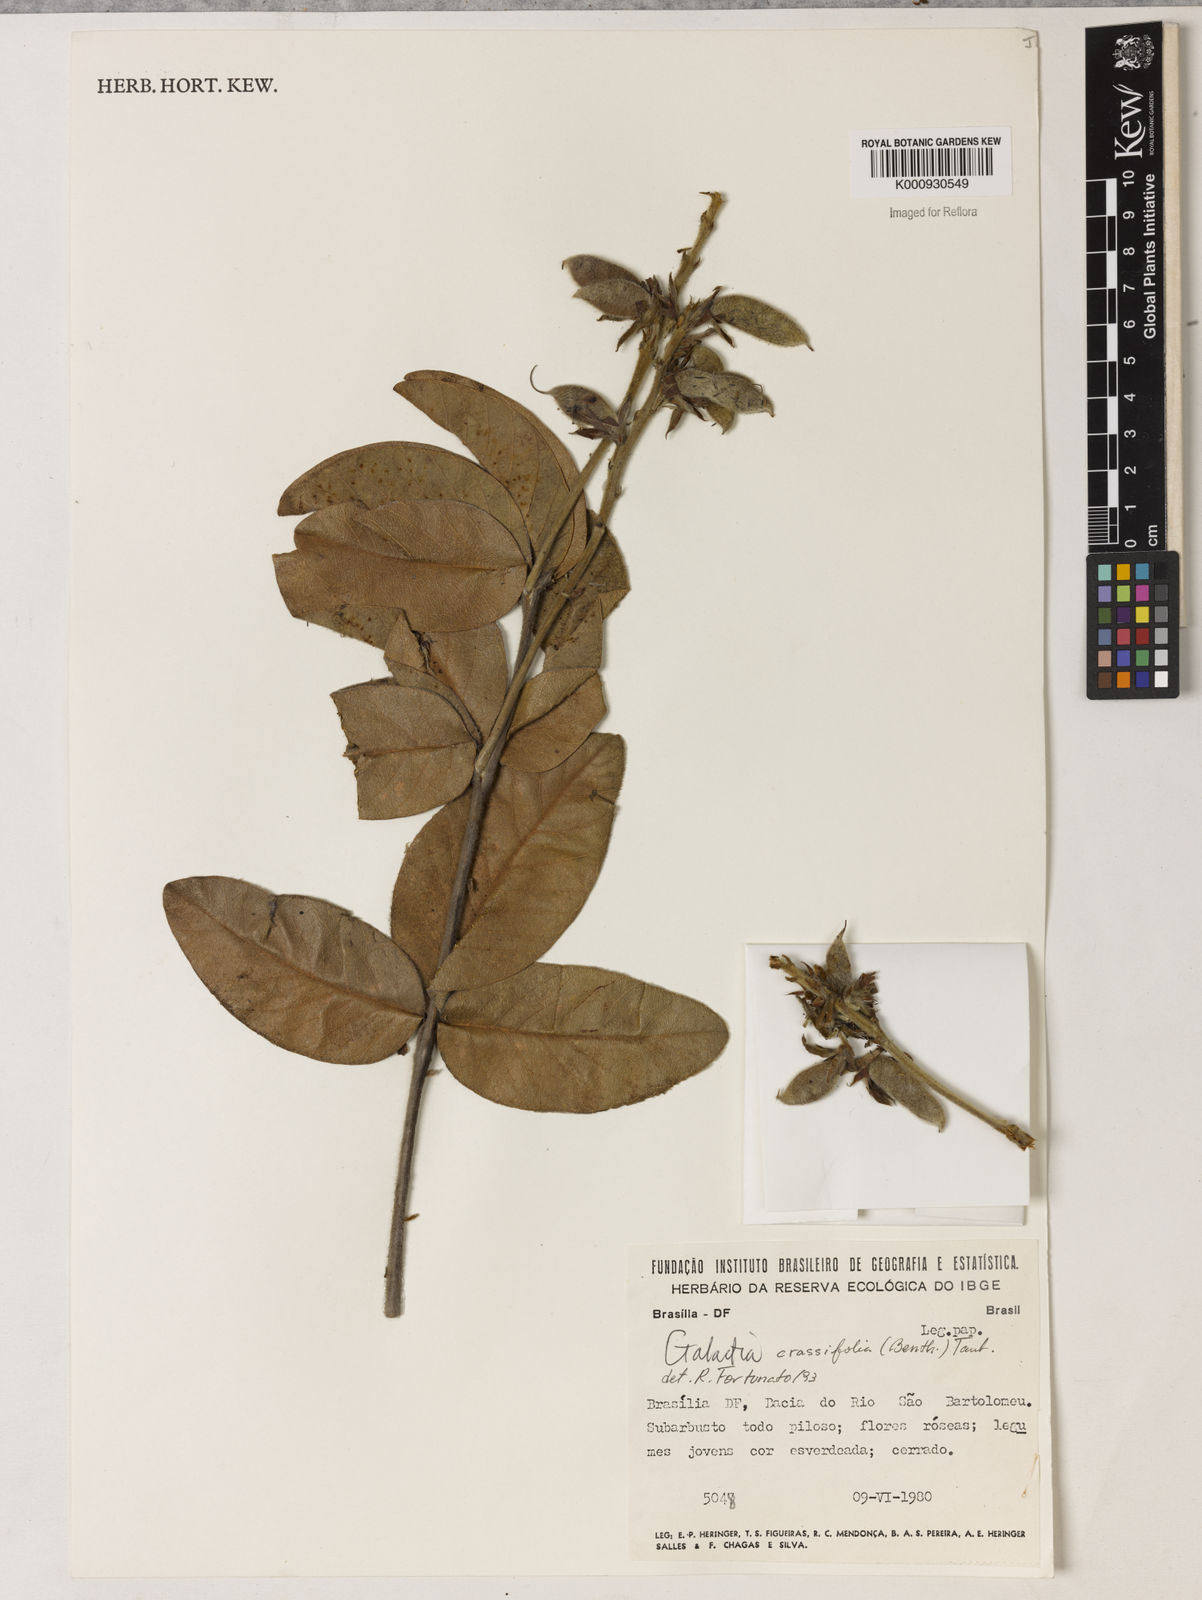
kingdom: Plantae
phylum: Tracheophyta
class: Magnoliopsida
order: Fabales
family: Fabaceae
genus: Betencourtia
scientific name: Betencourtia crassifolia
